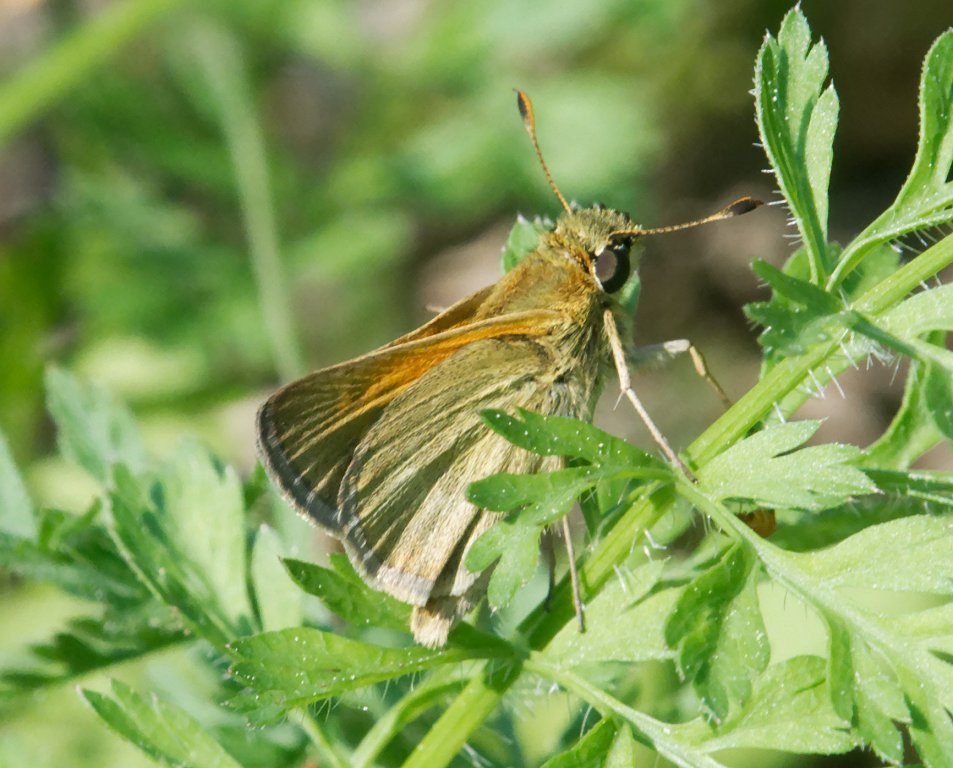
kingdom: Animalia
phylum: Arthropoda
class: Insecta
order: Lepidoptera
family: Hesperiidae
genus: Polites
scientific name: Polites themistocles
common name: Tawny-edged Skipper
